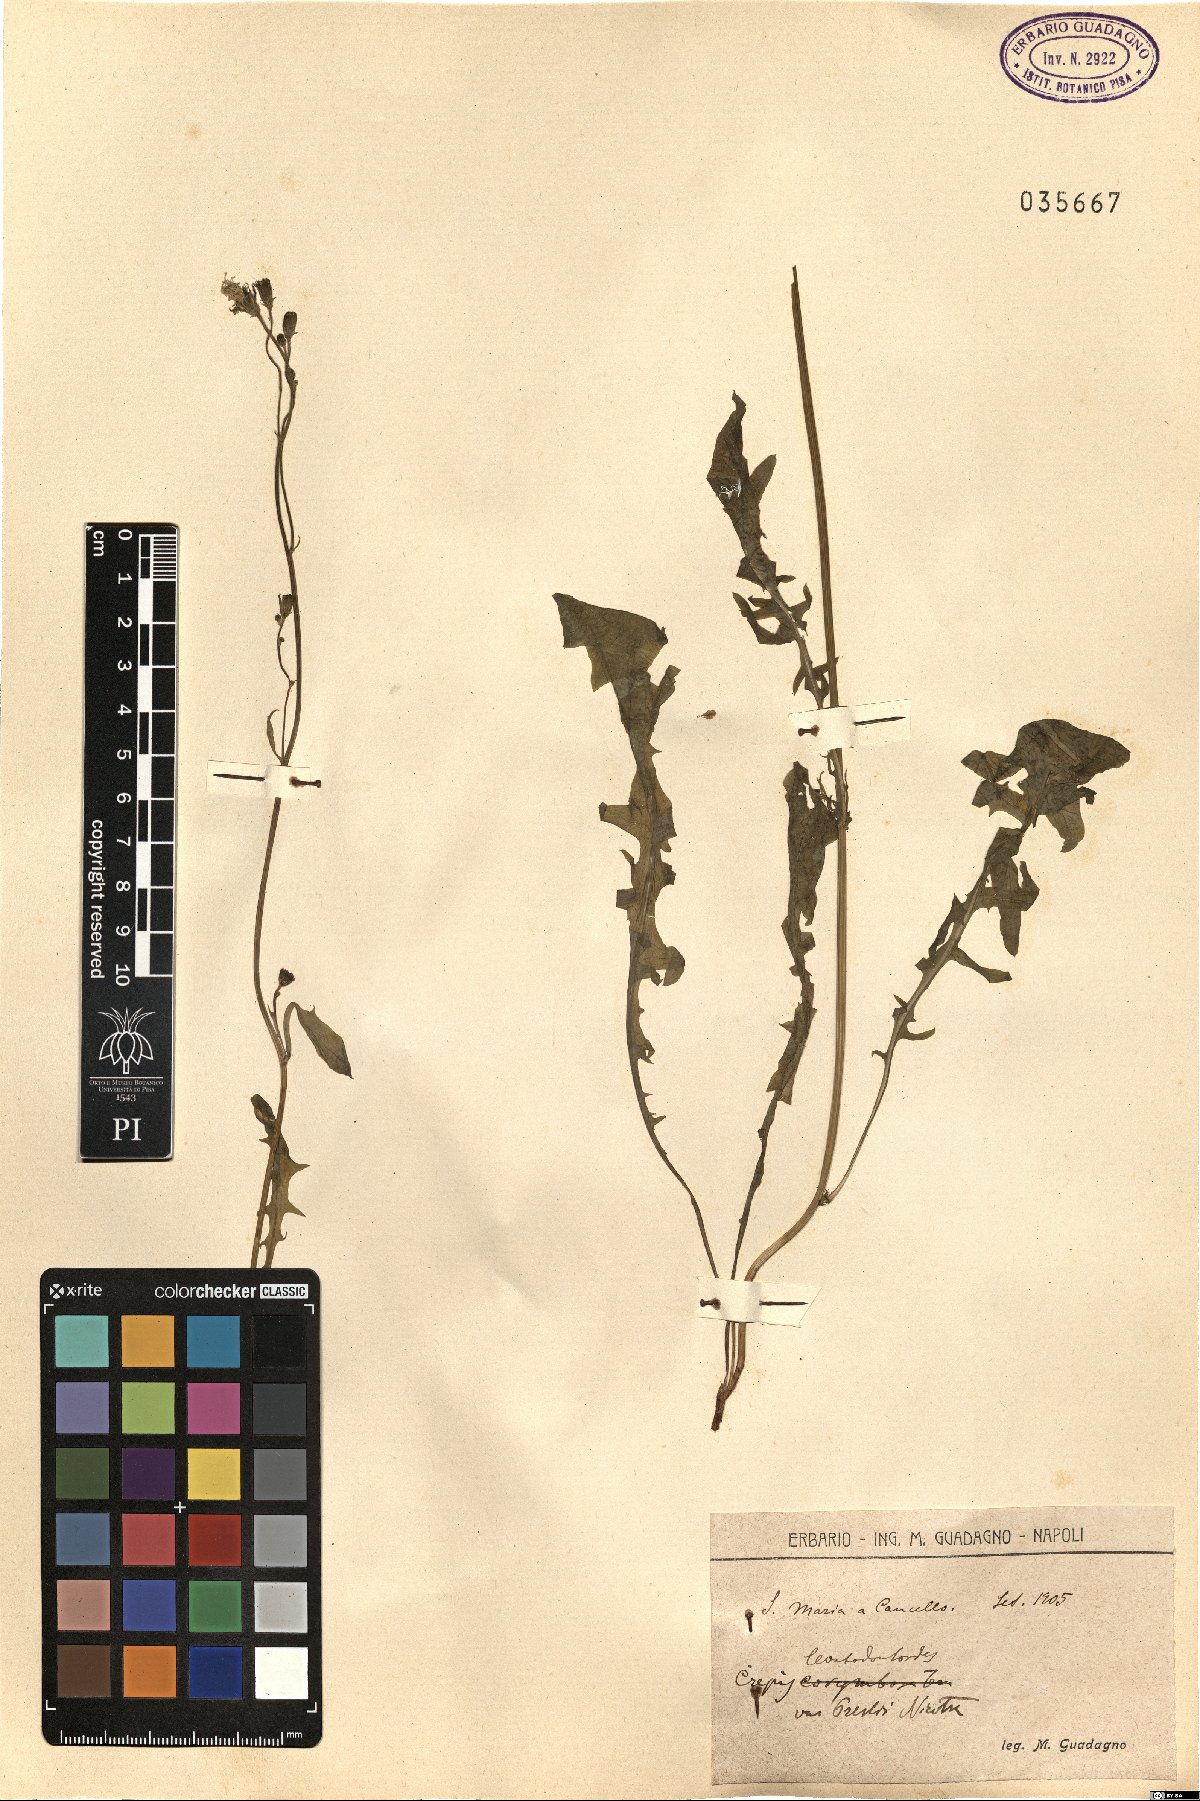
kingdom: Plantae
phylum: Tracheophyta
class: Magnoliopsida
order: Asterales
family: Asteraceae
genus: Crepis
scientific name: Crepis leontodontoides
